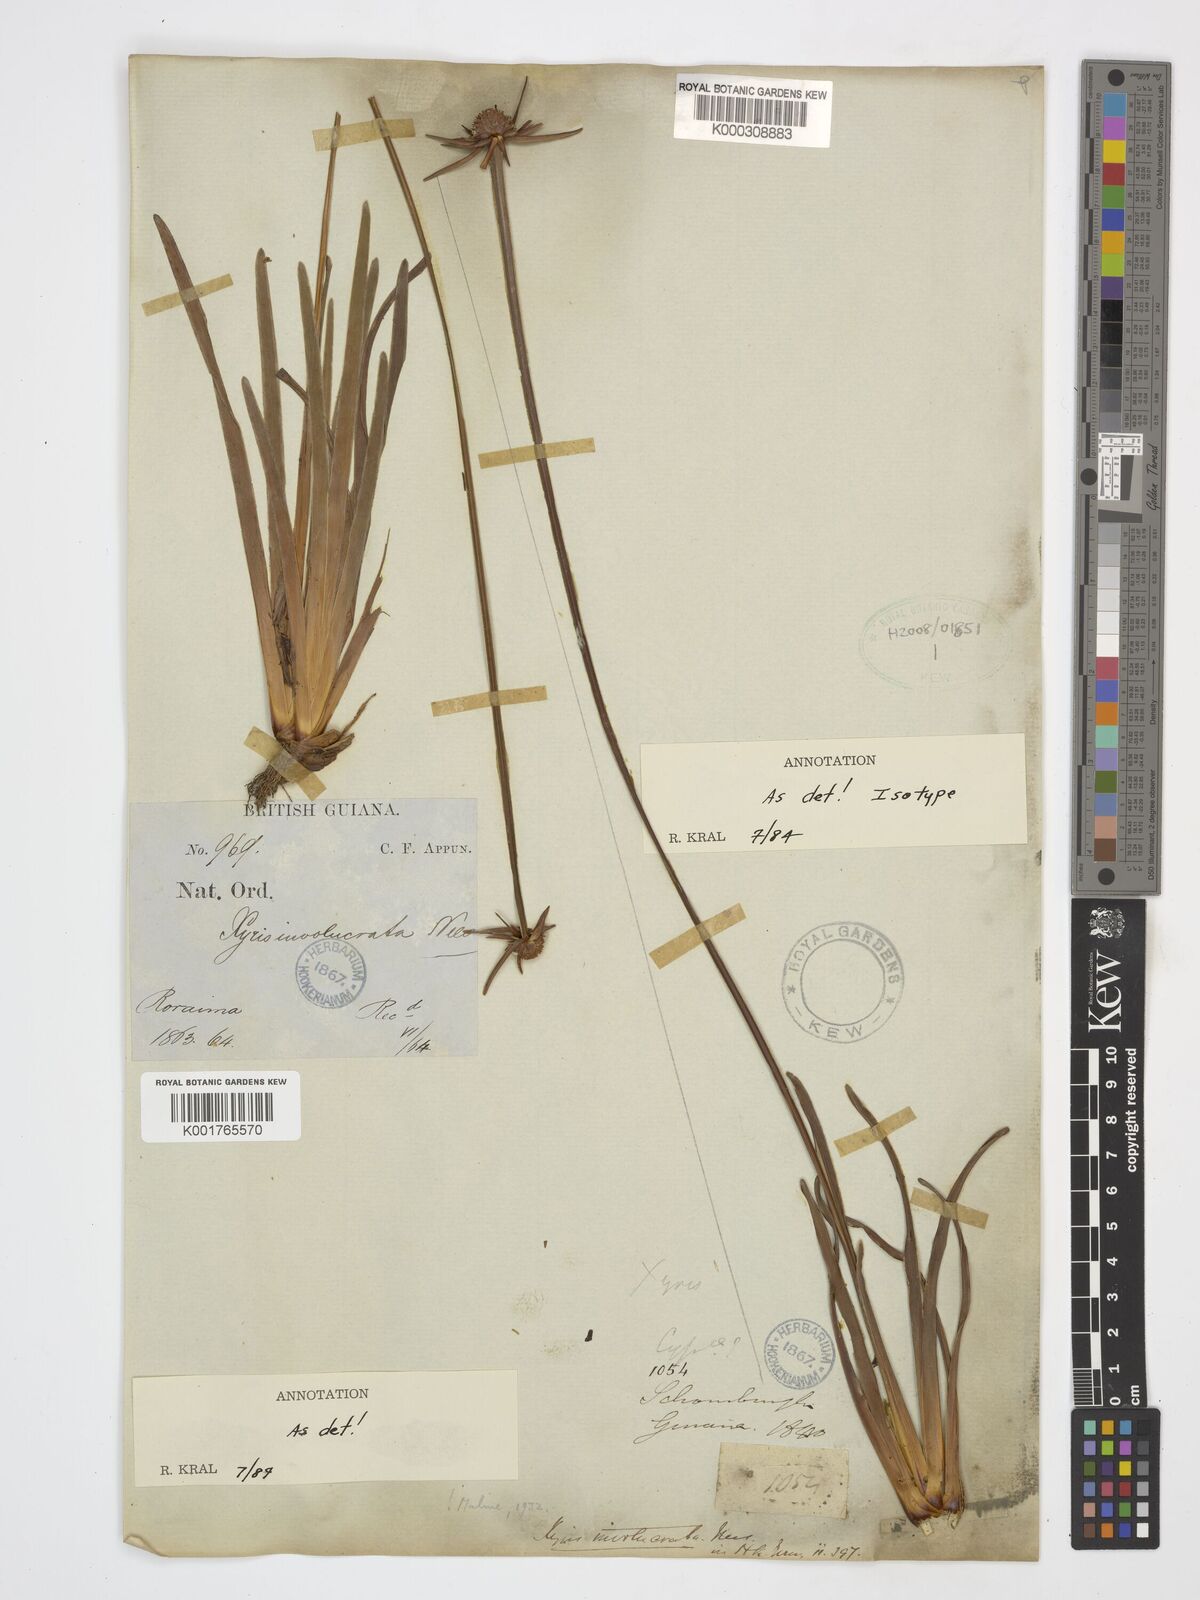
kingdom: Plantae
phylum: Tracheophyta
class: Liliopsida
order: Poales
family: Xyridaceae
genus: Xyris
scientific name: Xyris involucrata
